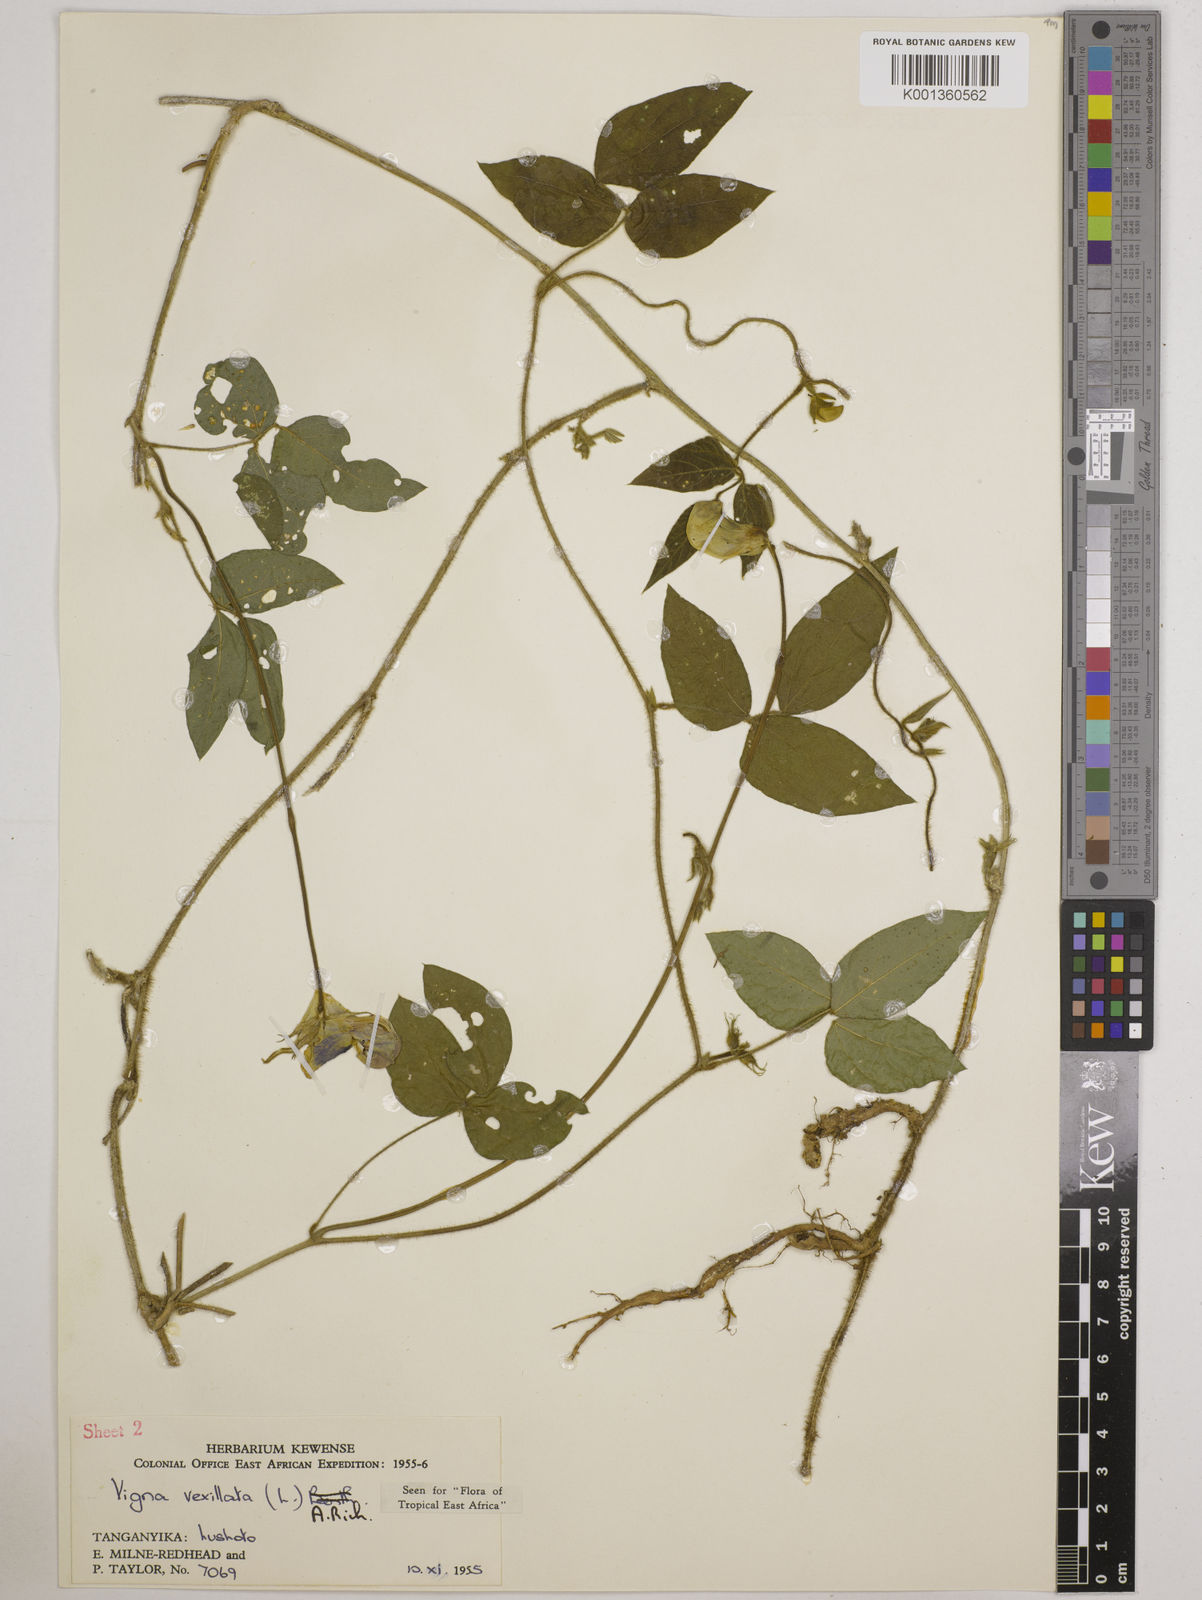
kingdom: Plantae
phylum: Tracheophyta
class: Magnoliopsida
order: Fabales
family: Fabaceae
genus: Vigna
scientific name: Vigna vexillata
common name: Zombi pea
